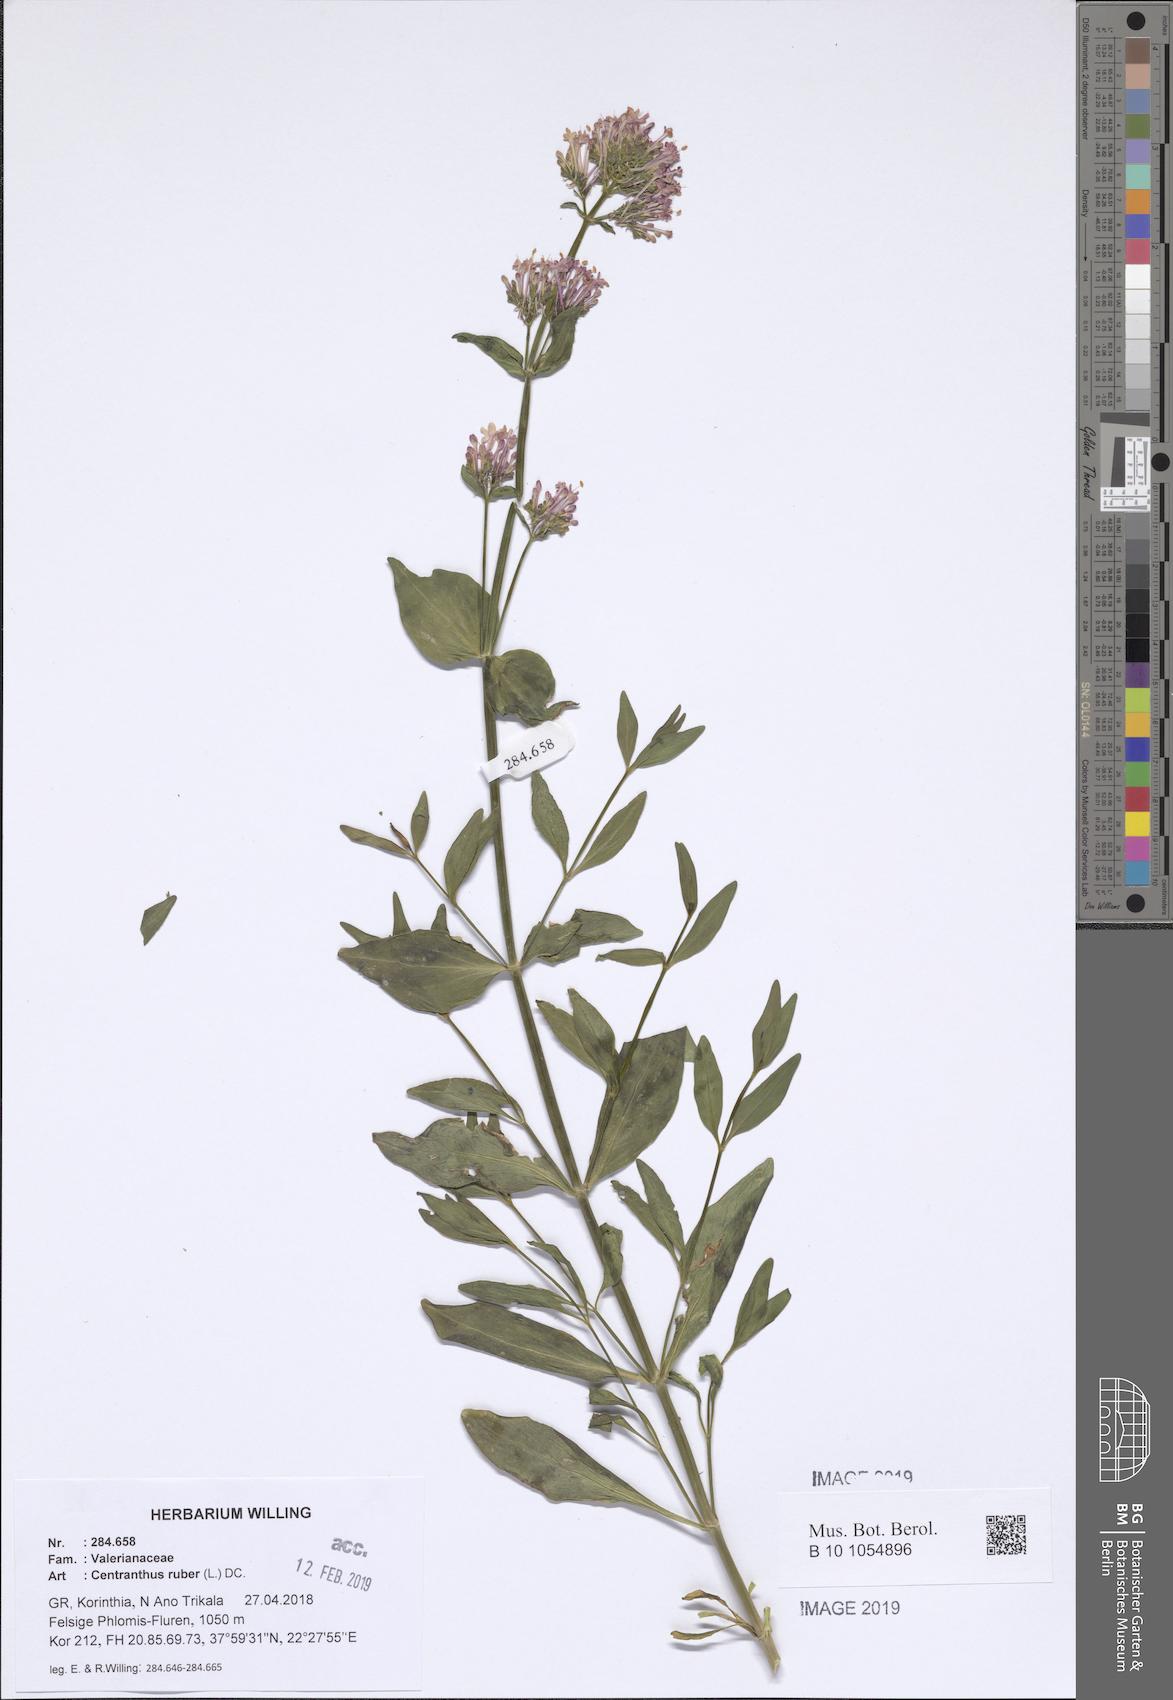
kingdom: Plantae
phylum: Tracheophyta
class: Magnoliopsida
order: Dipsacales
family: Caprifoliaceae
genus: Centranthus
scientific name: Centranthus ruber
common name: Red valerian
